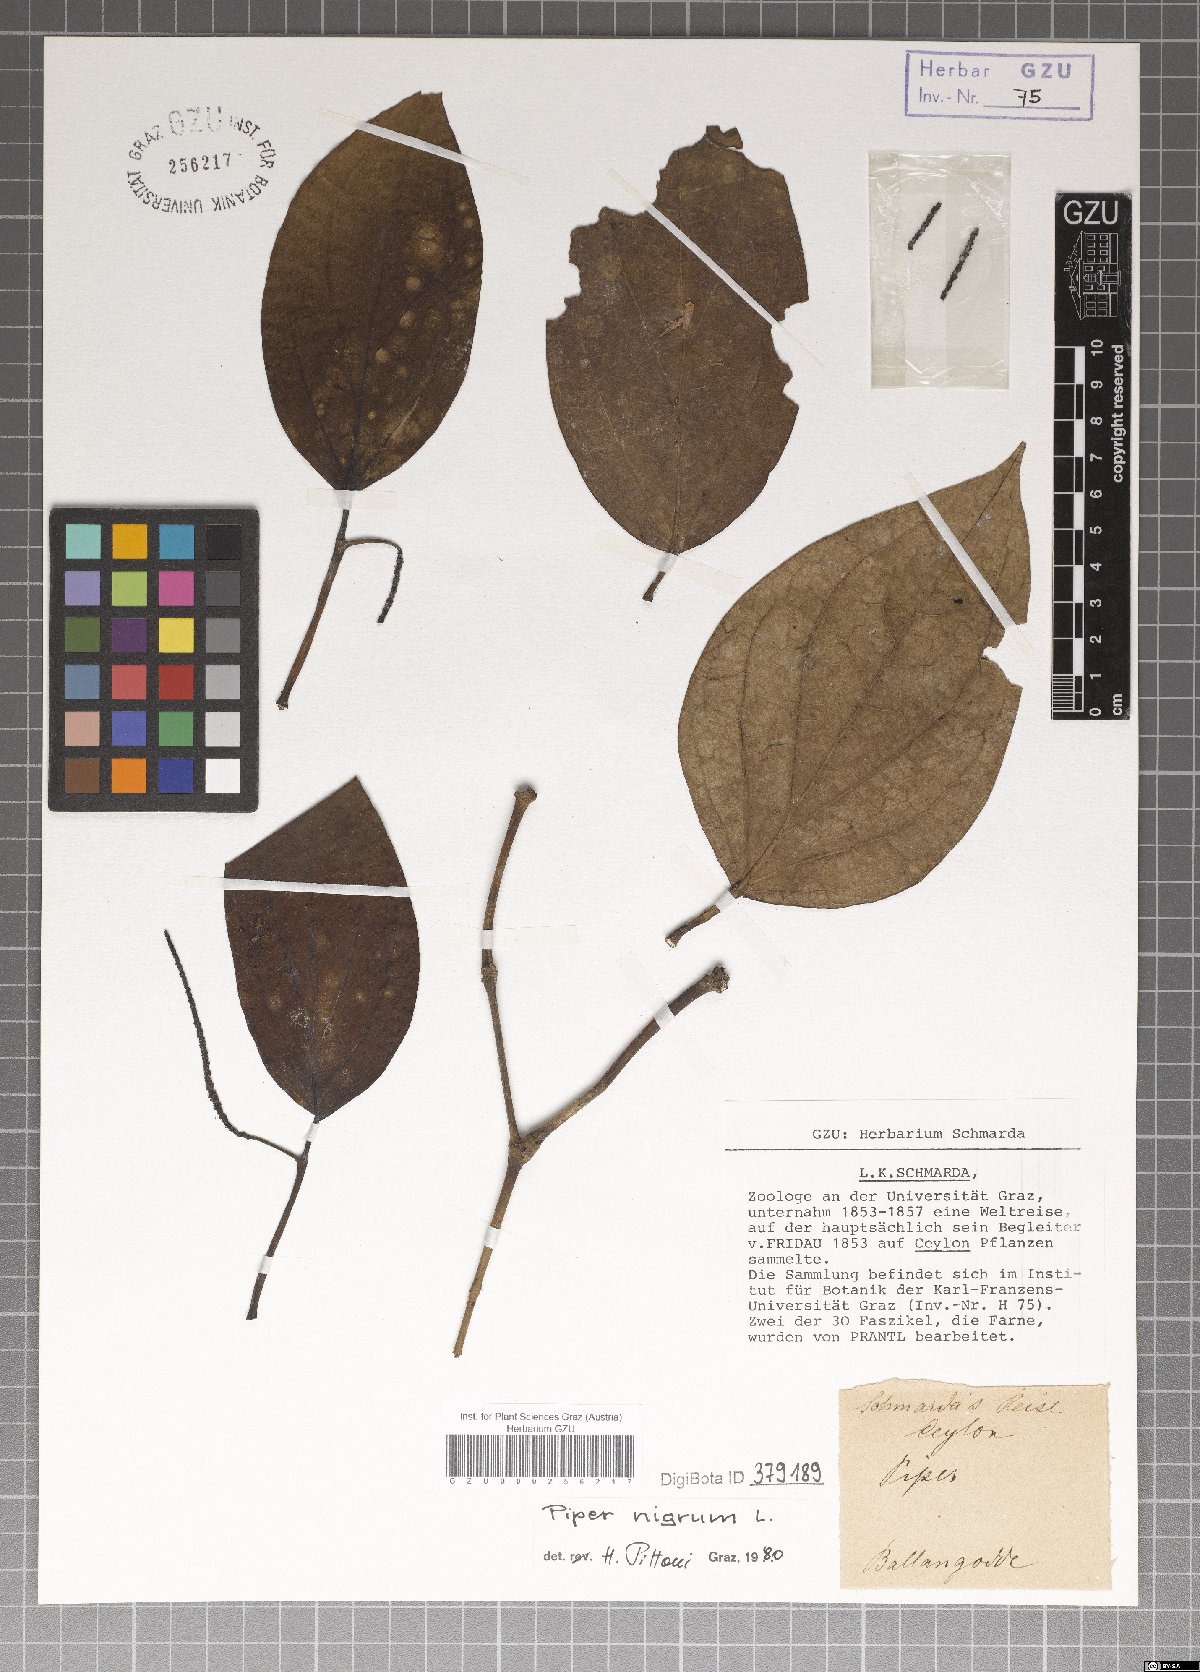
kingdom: Plantae
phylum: Tracheophyta
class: Magnoliopsida
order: Piperales
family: Piperaceae
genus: Piper
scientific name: Piper nigrum
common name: Black pepper
